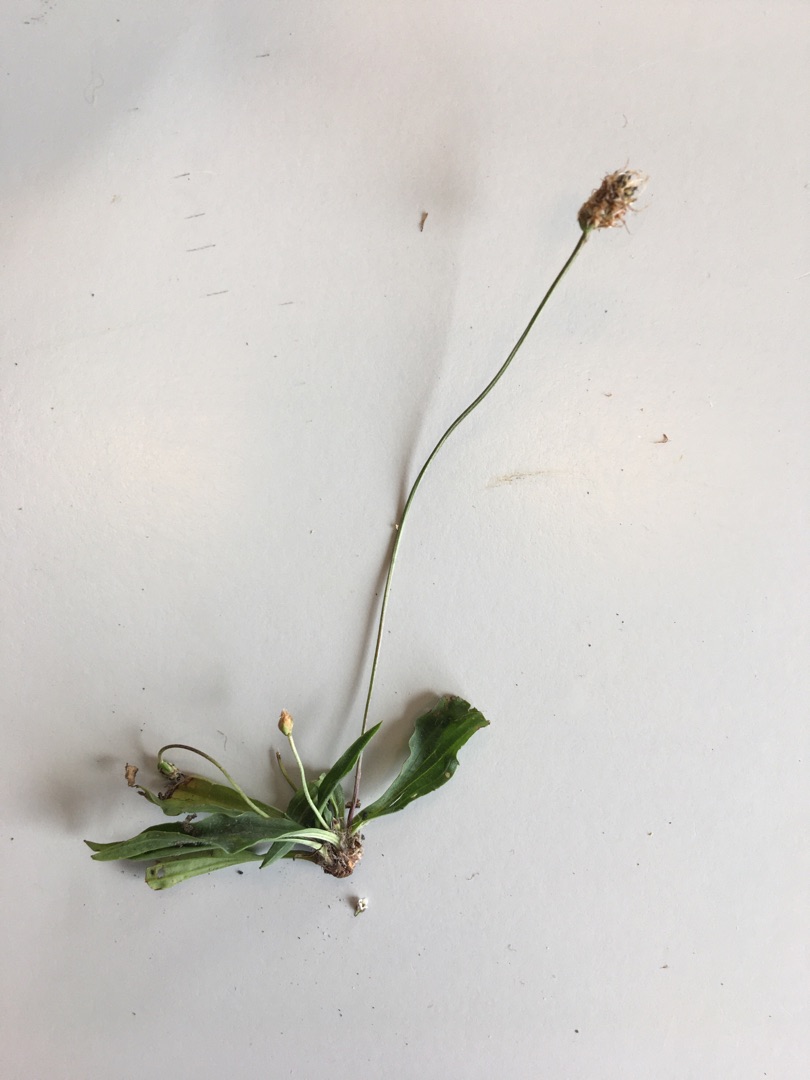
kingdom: Plantae
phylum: Tracheophyta
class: Magnoliopsida
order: Lamiales
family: Plantaginaceae
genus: Plantago
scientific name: Plantago lanceolata
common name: Lancet-vejbred
